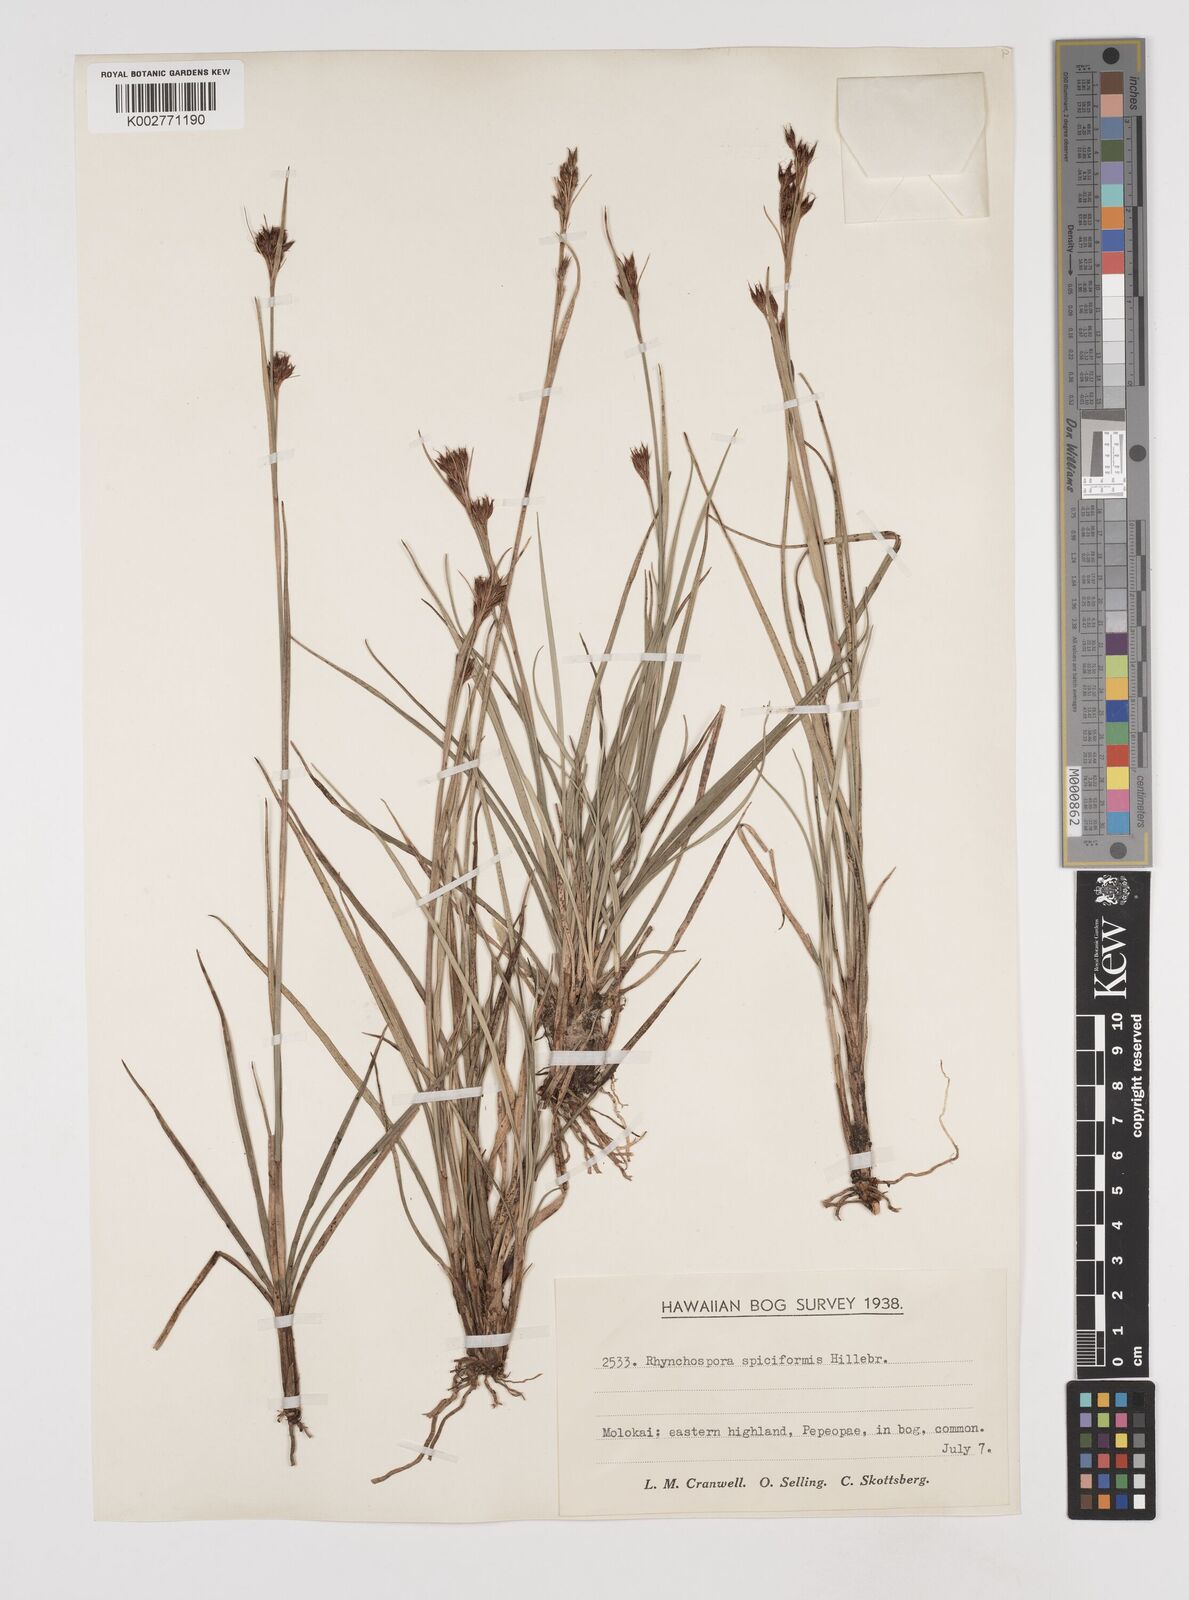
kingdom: Plantae
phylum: Tracheophyta
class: Liliopsida
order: Poales
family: Cyperaceae
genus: Rhynchospora
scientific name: Rhynchospora chinensis
